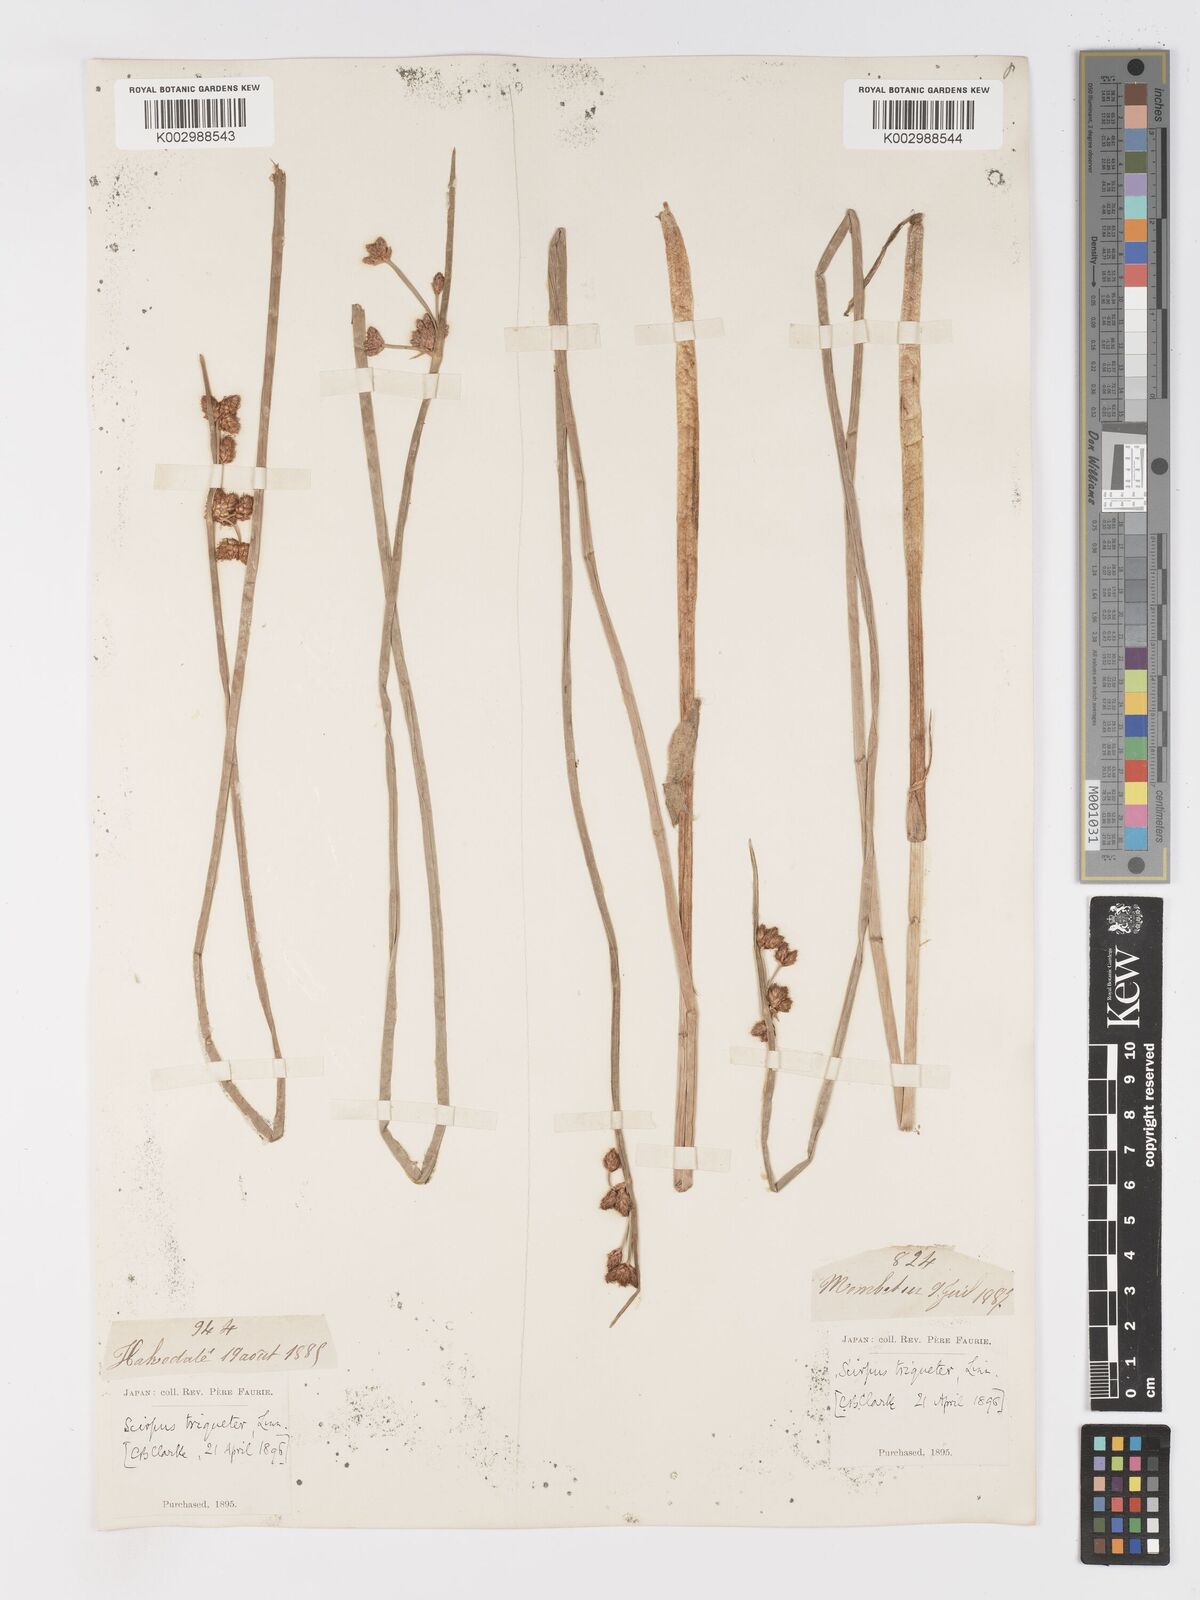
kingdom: Plantae
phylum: Tracheophyta
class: Liliopsida
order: Poales
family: Cyperaceae
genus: Schoenoplectus
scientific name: Schoenoplectus triqueter
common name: Triangular club-rush
